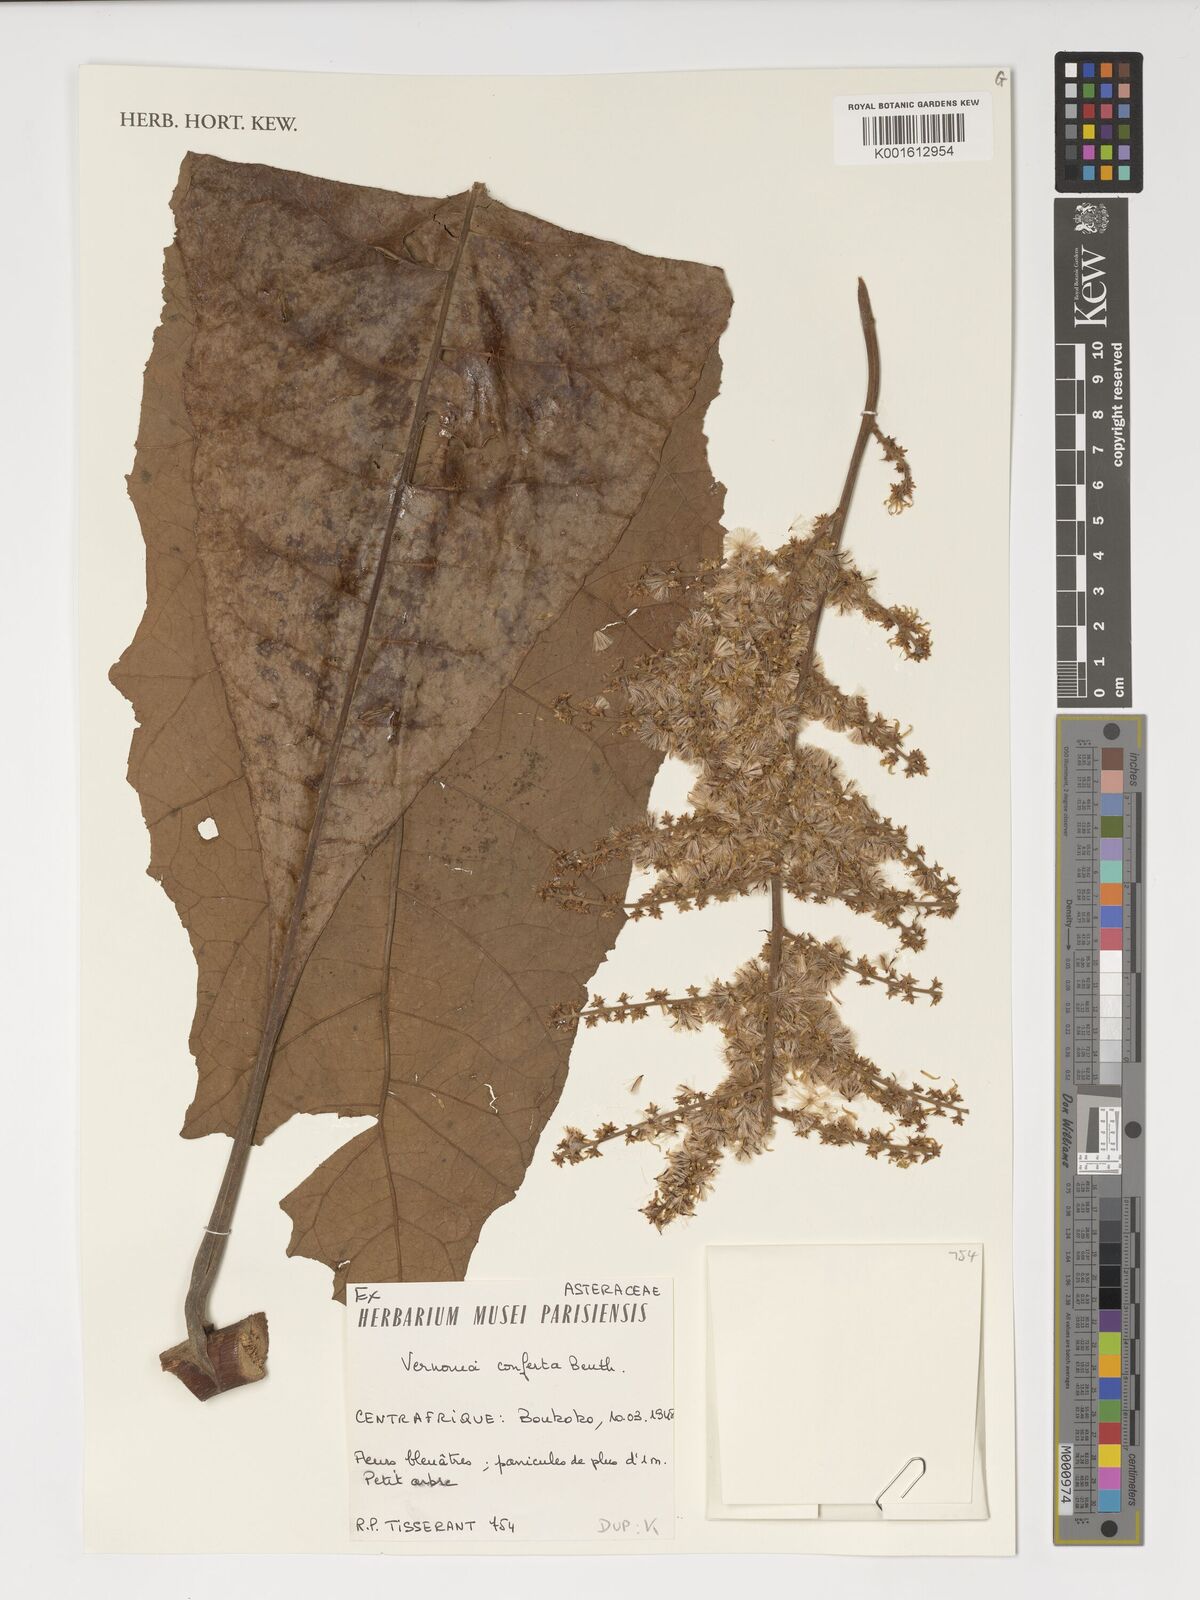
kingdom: Plantae
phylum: Tracheophyta
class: Magnoliopsida
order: Asterales
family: Asteraceae
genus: Monosis
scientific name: Monosis conferta
